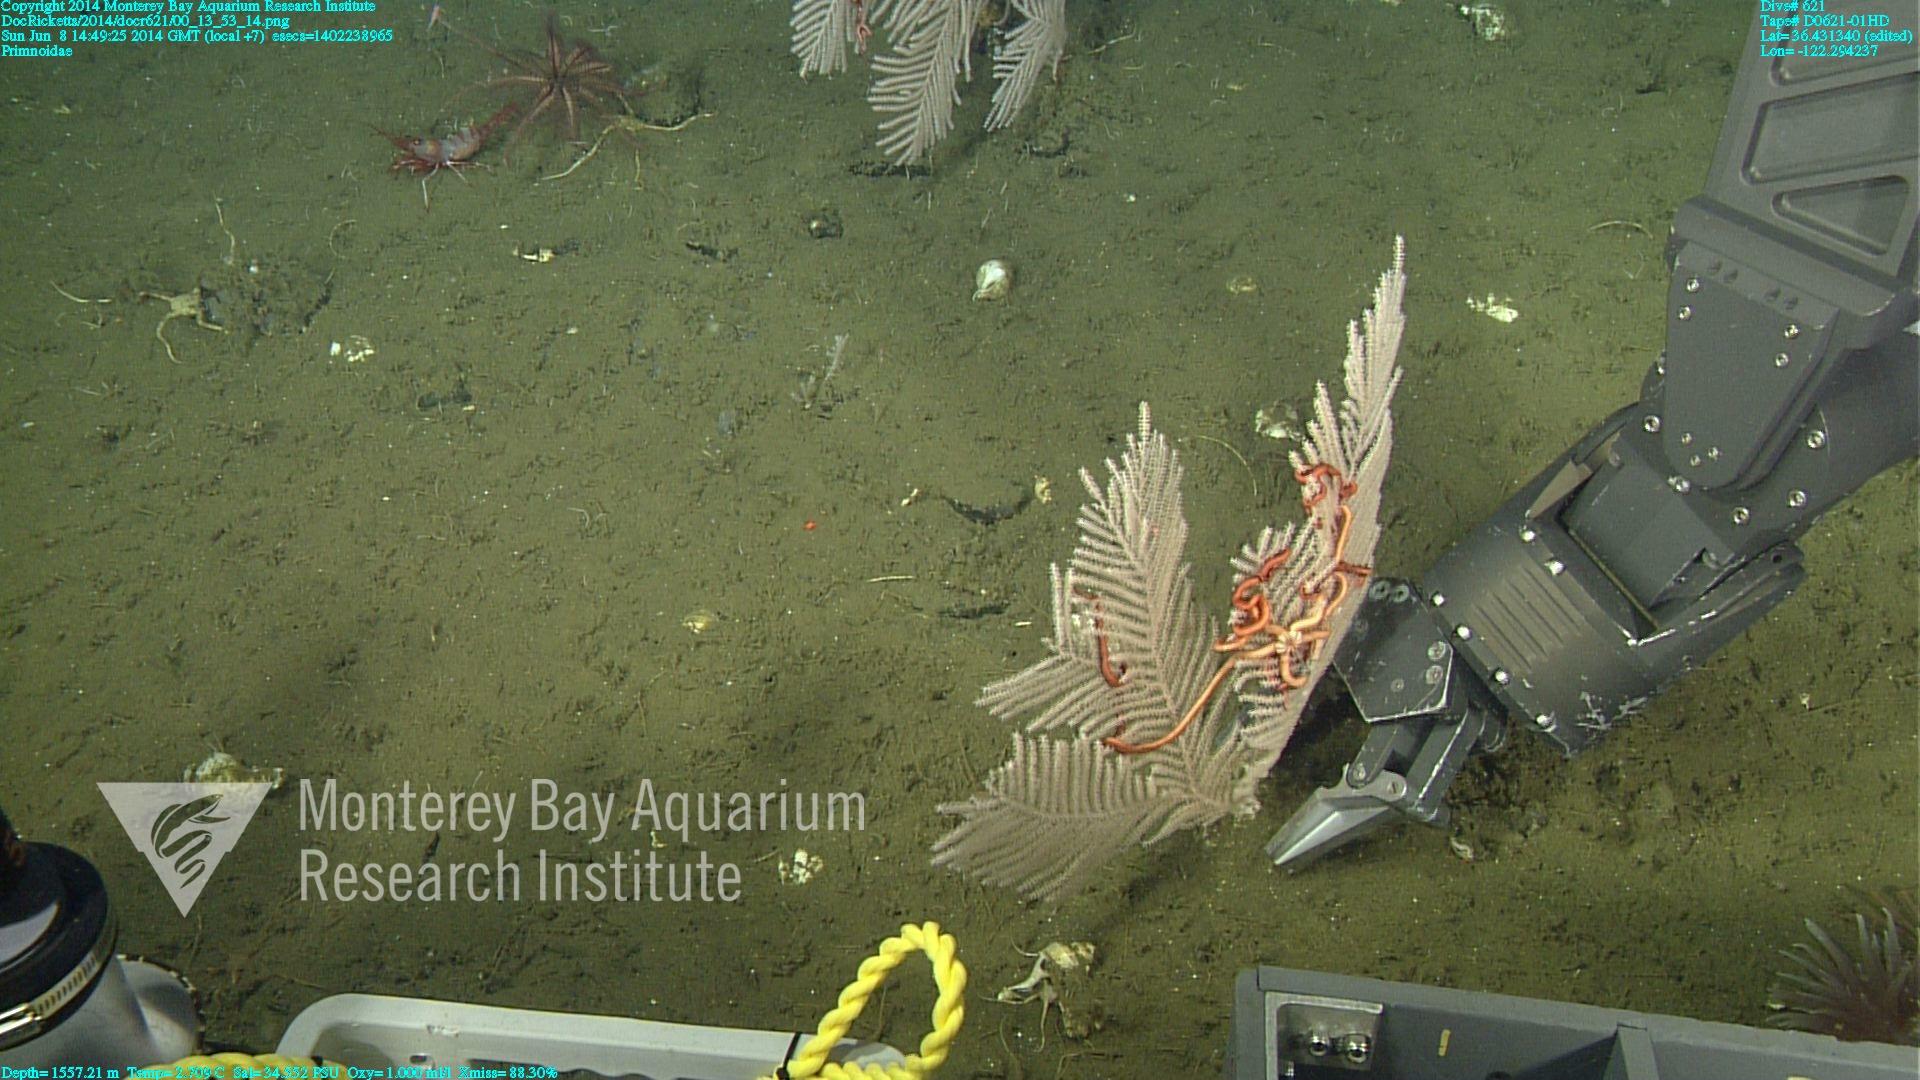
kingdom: Animalia
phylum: Cnidaria
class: Anthozoa
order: Scleralcyonacea
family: Primnoidae
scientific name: Primnoidae
